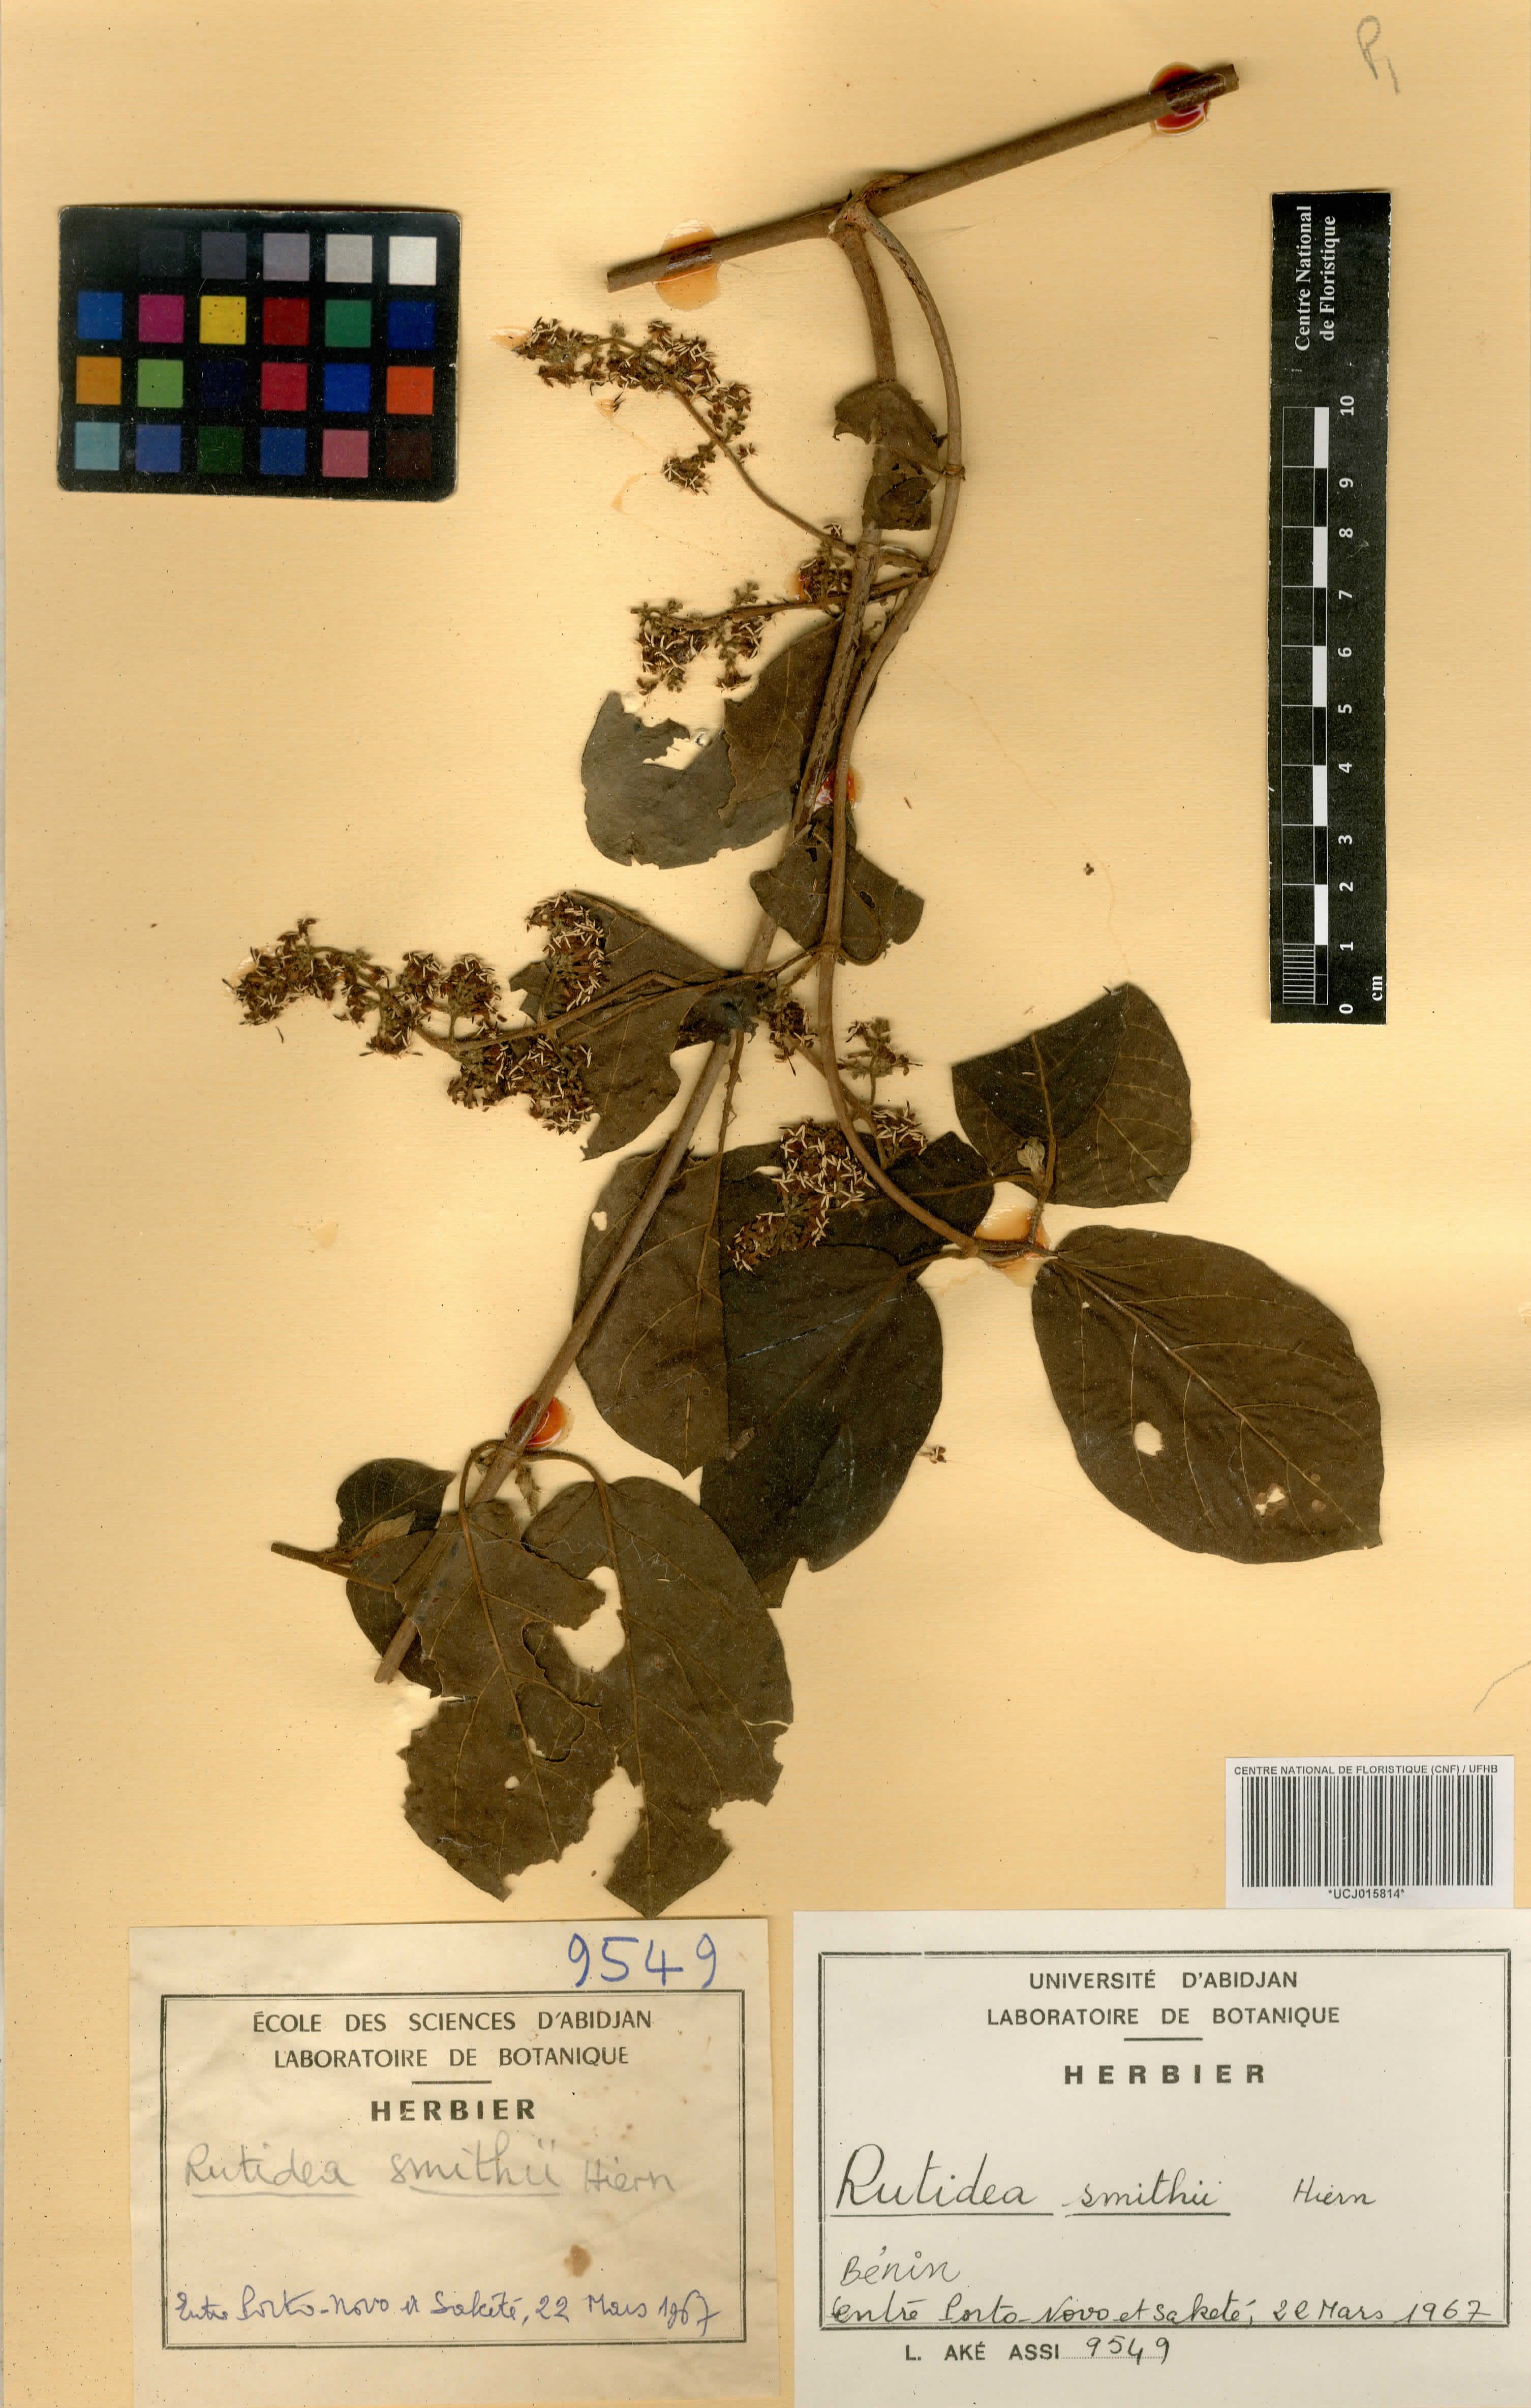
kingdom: Plantae
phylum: Tracheophyta
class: Magnoliopsida
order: Gentianales
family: Rubiaceae
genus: Rutidea
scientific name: Rutidea smithii
